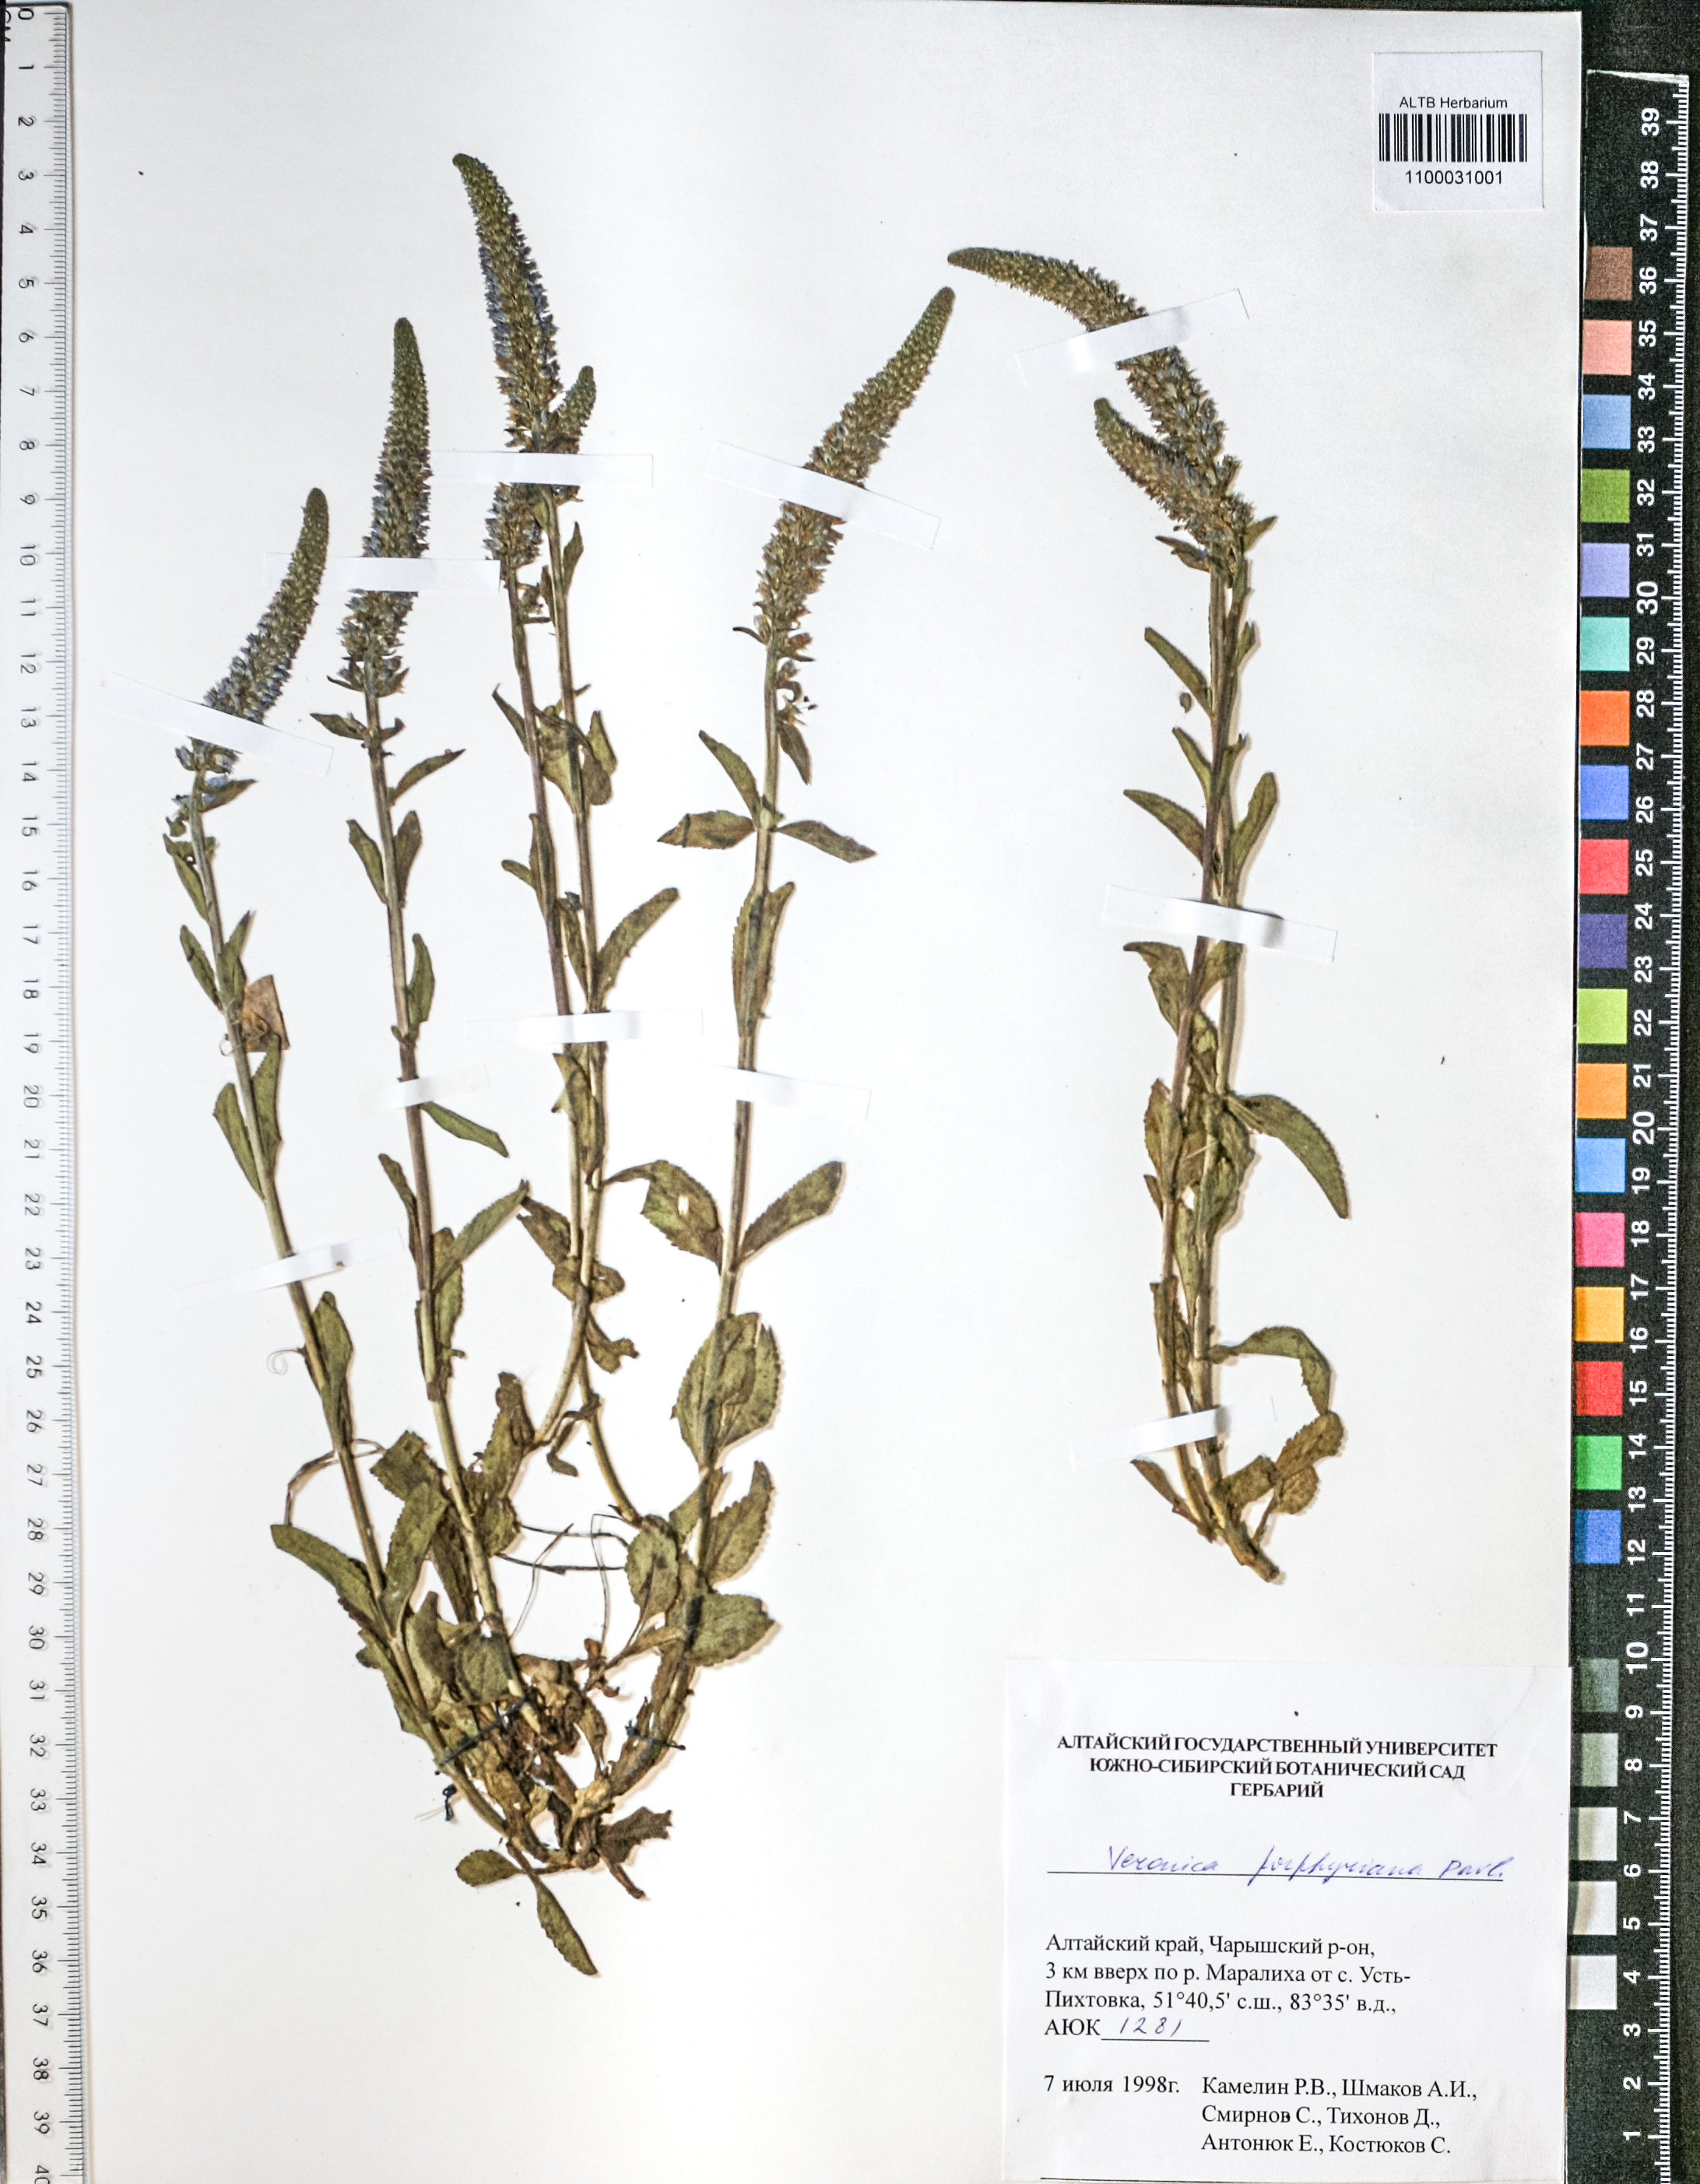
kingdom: Plantae
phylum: Tracheophyta
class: Magnoliopsida
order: Lamiales
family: Plantaginaceae
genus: Veronica
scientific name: Veronica porphyriana
